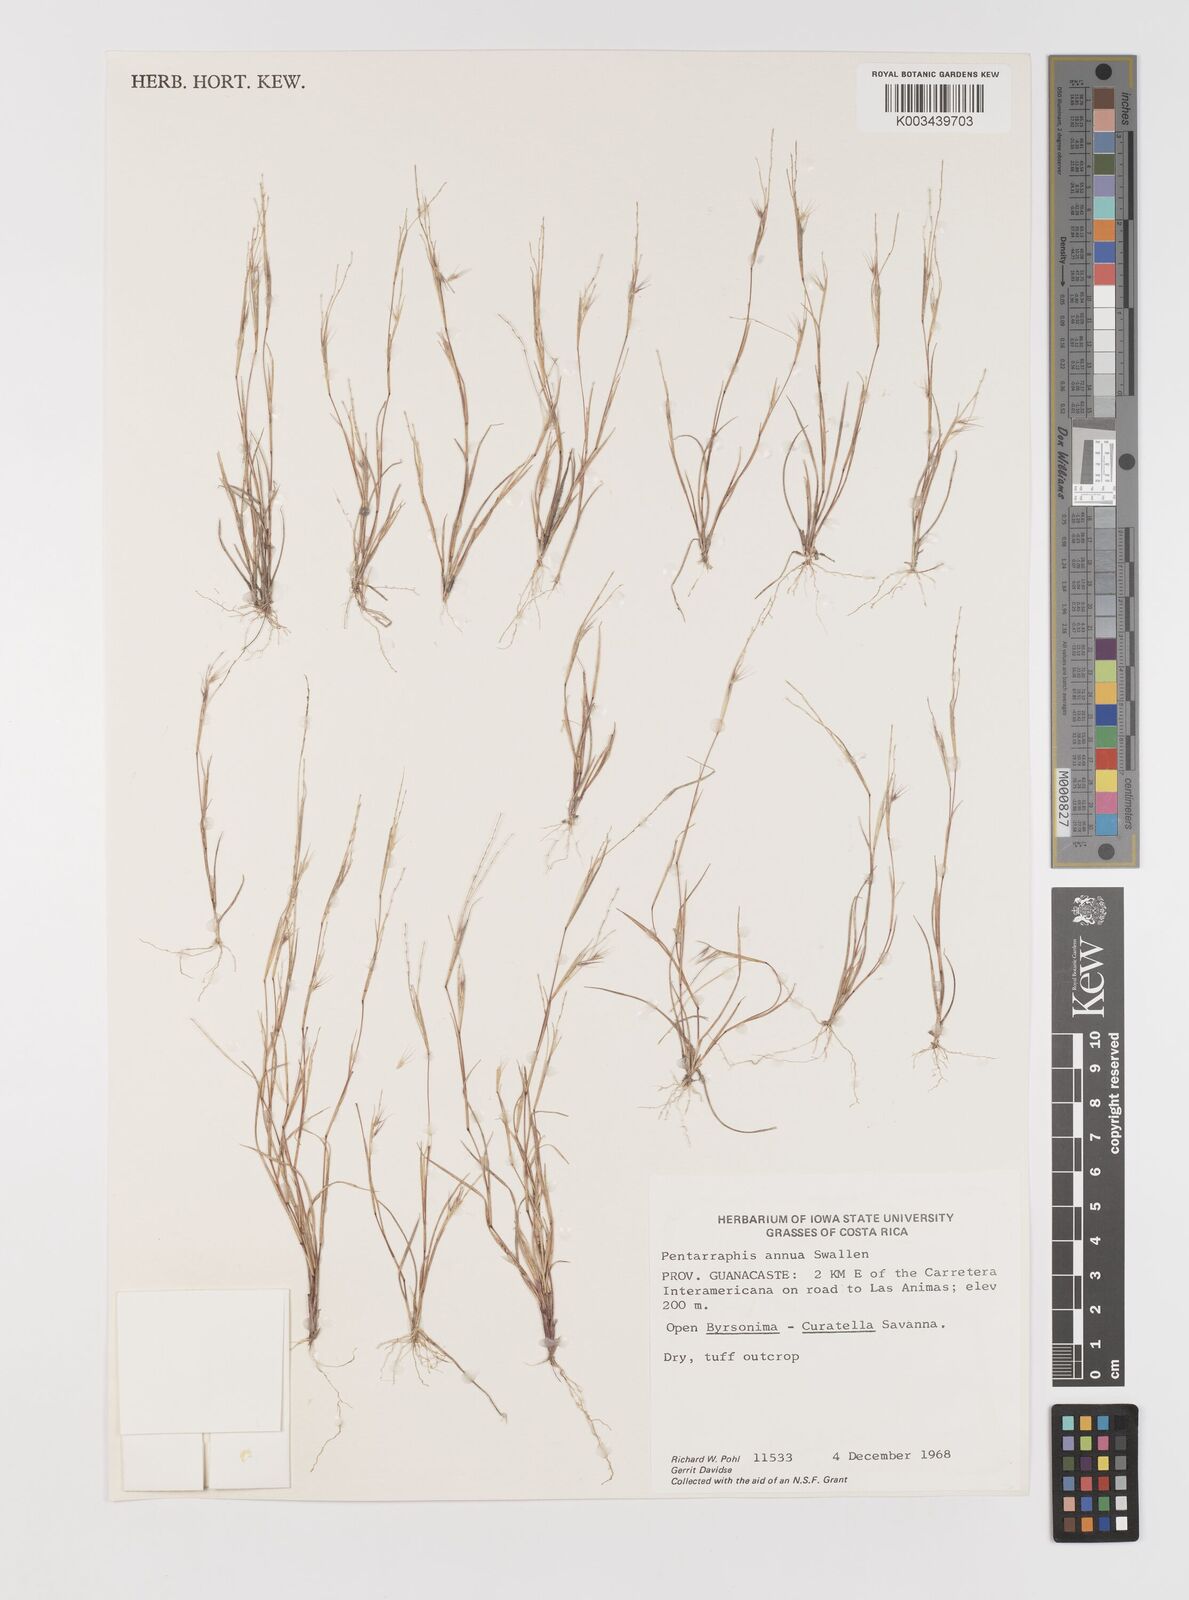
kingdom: Plantae
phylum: Tracheophyta
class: Liliopsida
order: Poales
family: Poaceae
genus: Bouteloua
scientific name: Bouteloua swallenii
